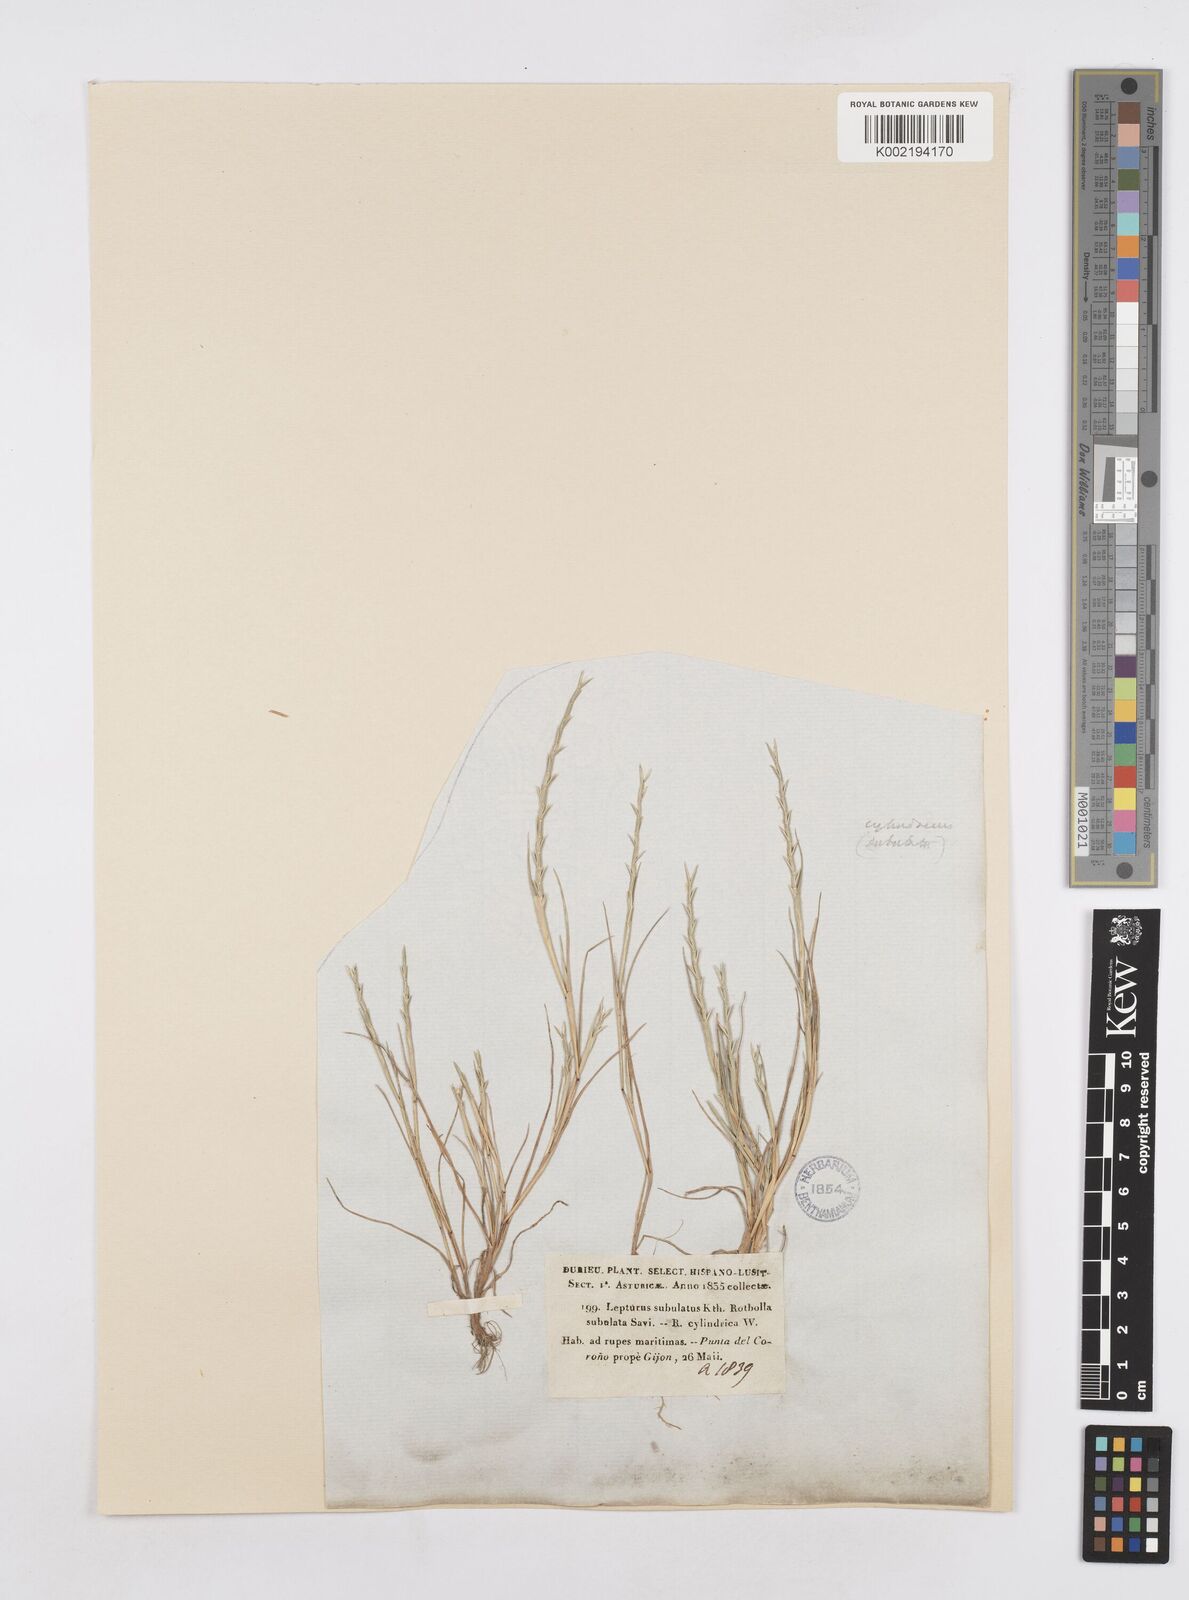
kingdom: Plantae
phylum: Tracheophyta
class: Liliopsida
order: Poales
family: Poaceae
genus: Parapholis
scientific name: Parapholis cylindrica
